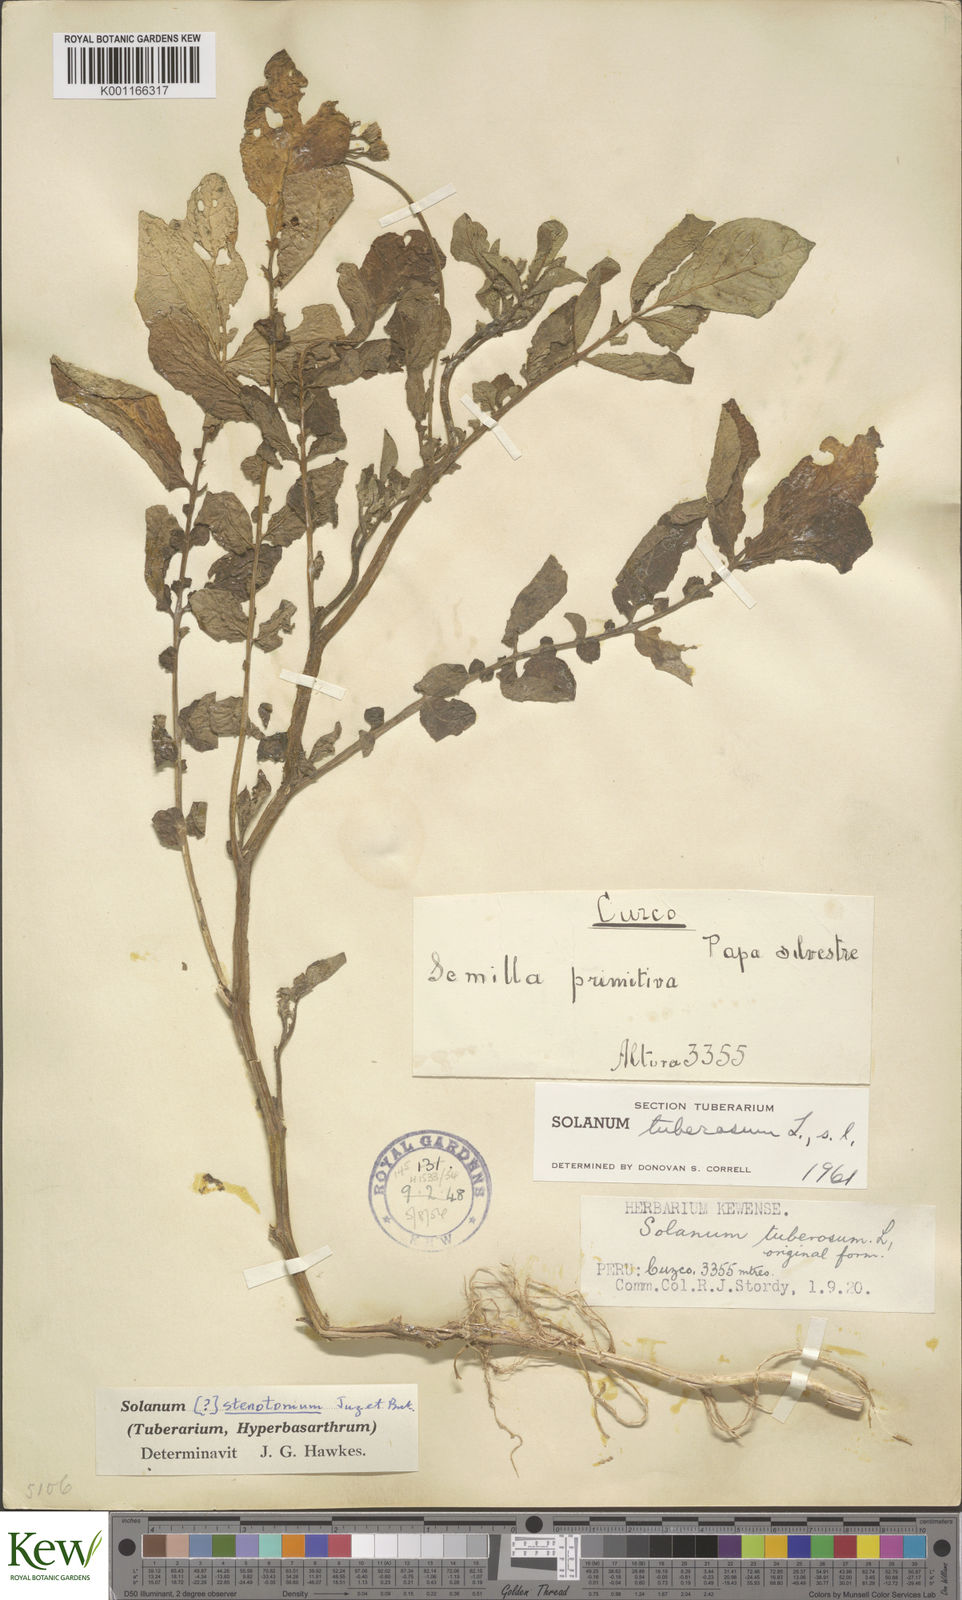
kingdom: Plantae
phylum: Tracheophyta
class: Magnoliopsida
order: Solanales
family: Solanaceae
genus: Solanum
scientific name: Solanum tuberosum
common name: Potato
